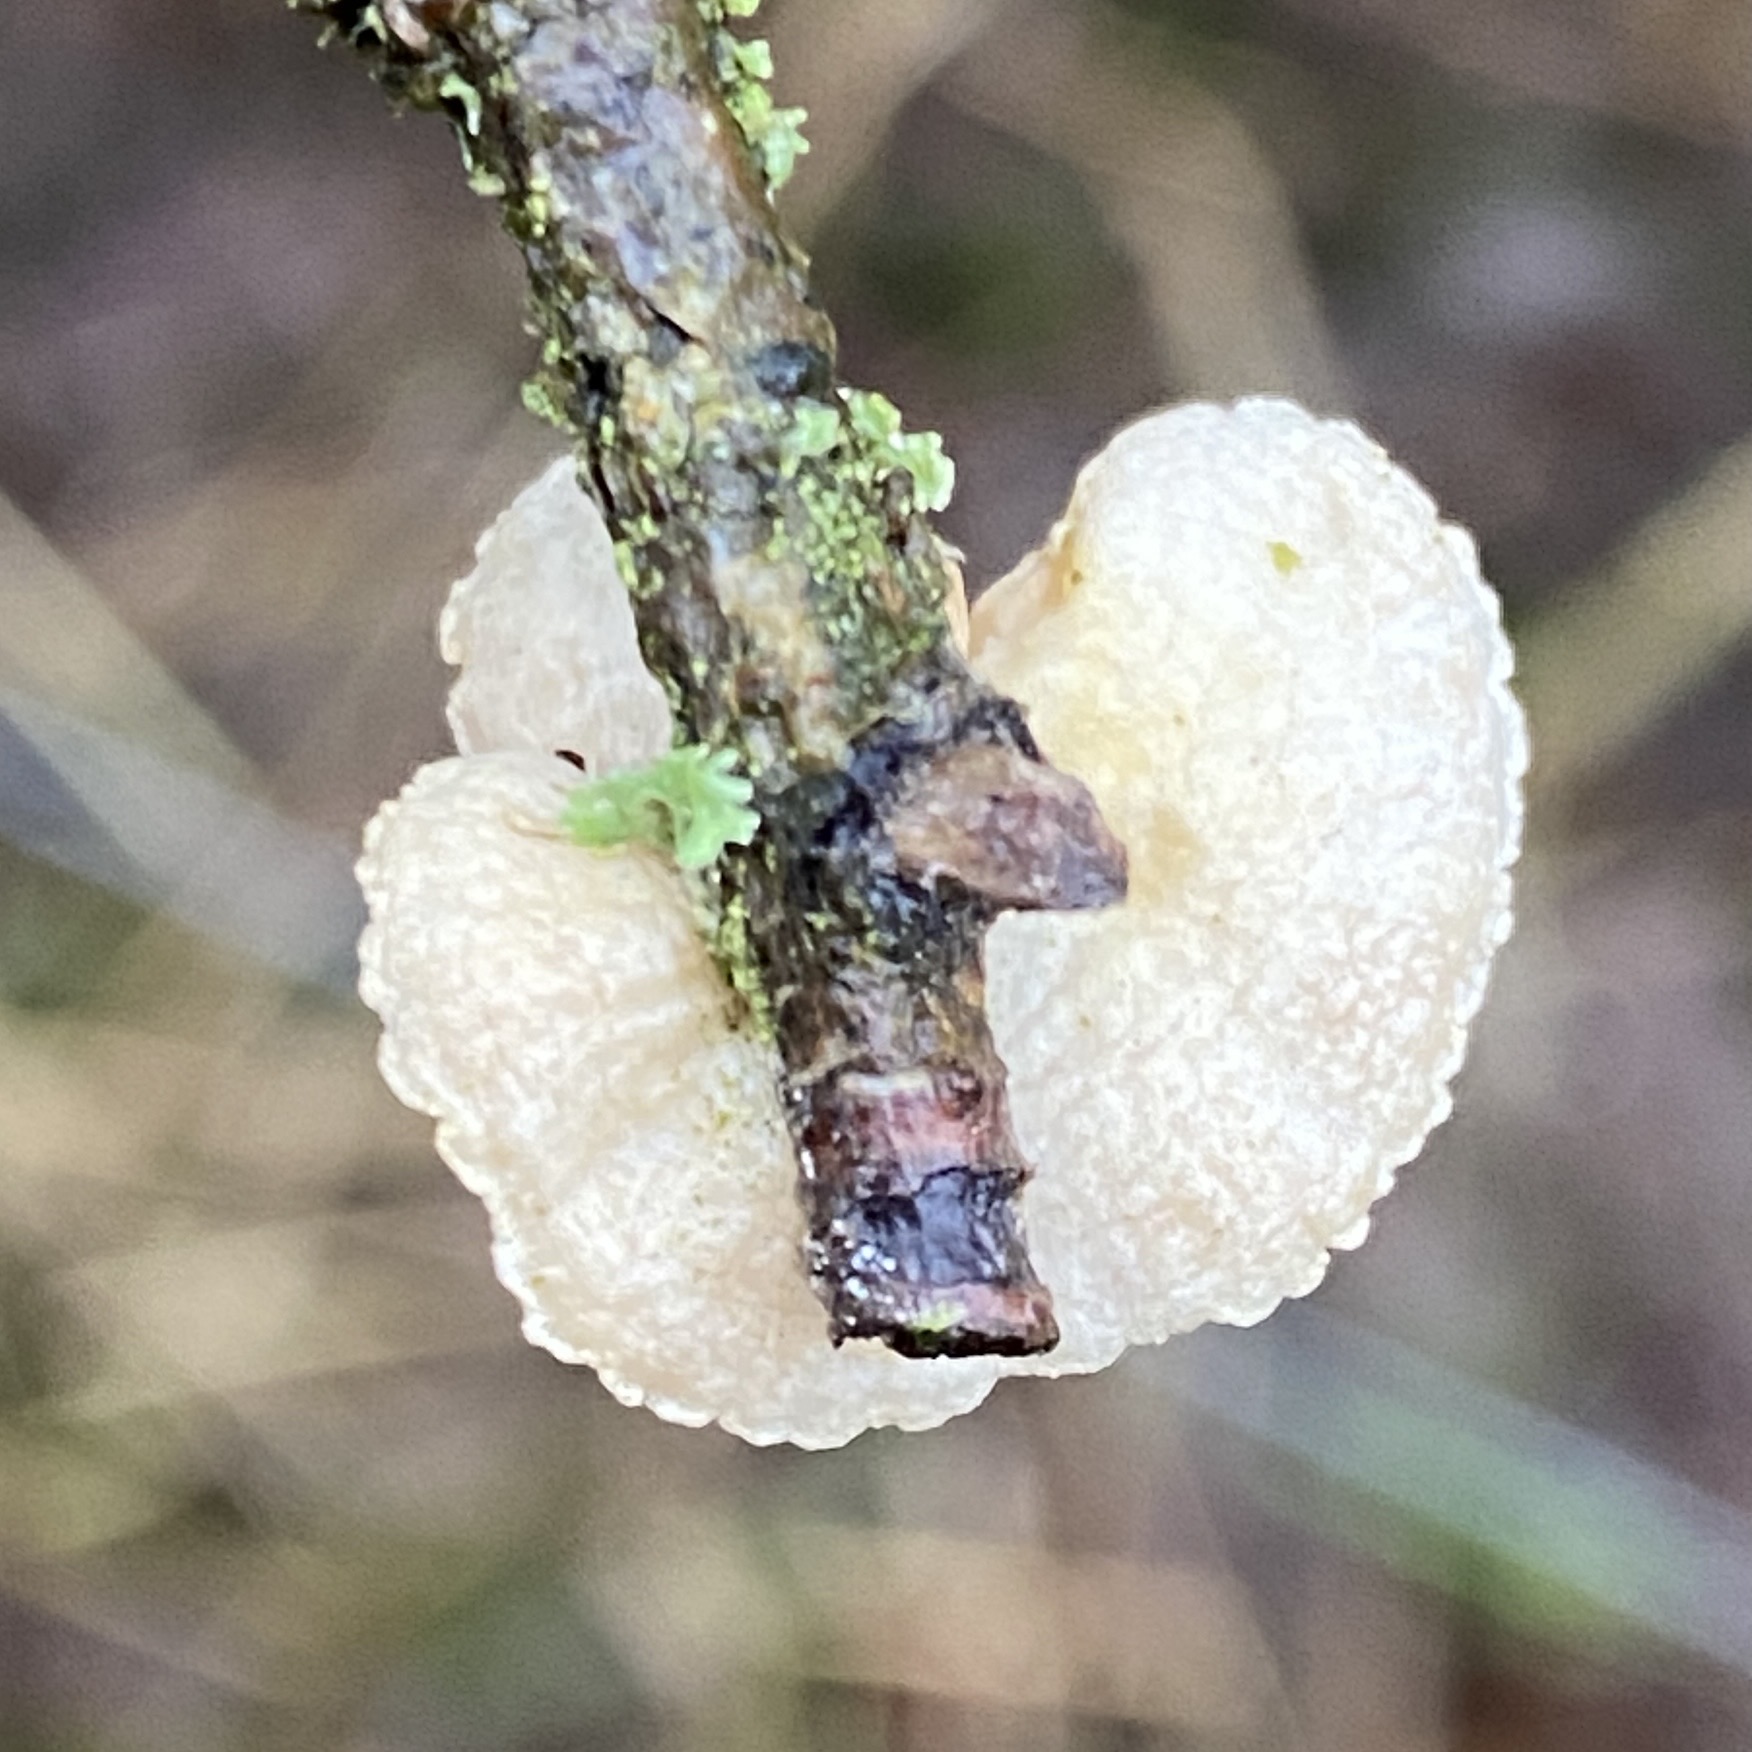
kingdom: Fungi
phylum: Basidiomycota
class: Agaricomycetes
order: Agaricales
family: Crepidotaceae
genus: Crepidotus
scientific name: Crepidotus
